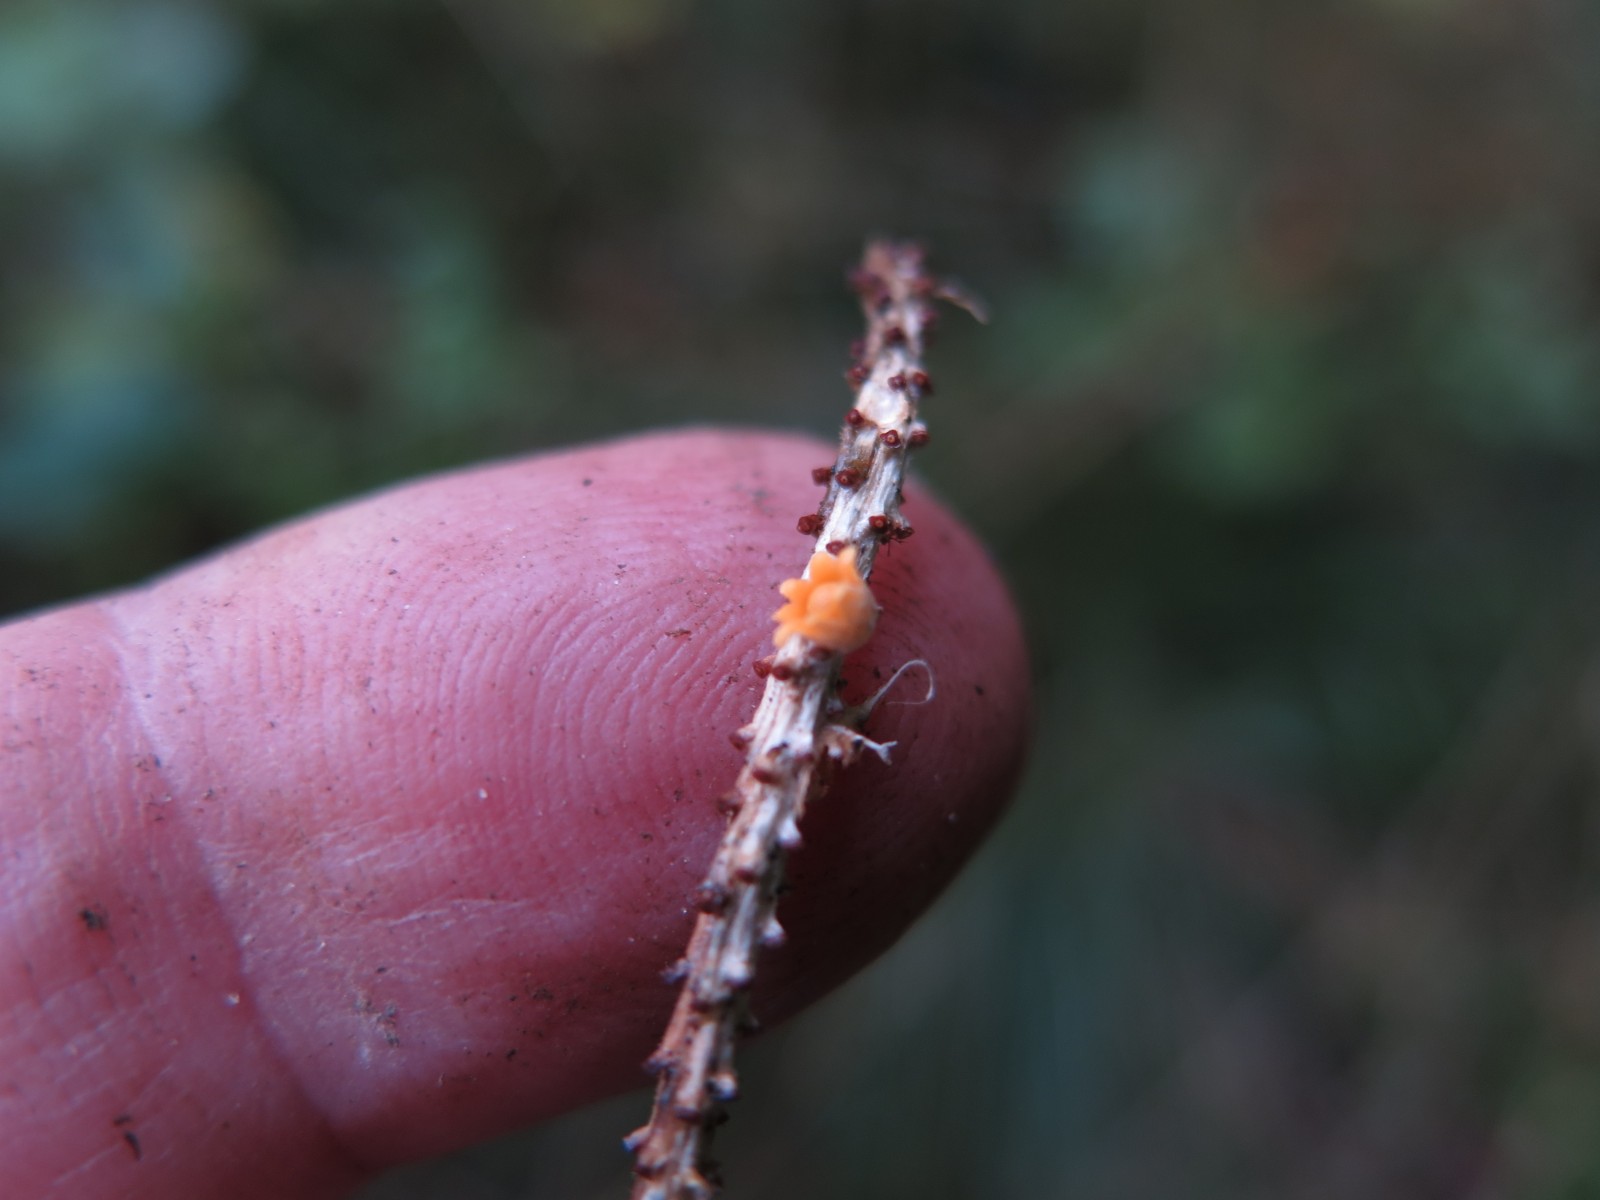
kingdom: Fungi
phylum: Basidiomycota
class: Agaricomycetes
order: Geastrales
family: Geastraceae
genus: Sphaerobolus
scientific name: Sphaerobolus stellatus
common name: bombekaster
